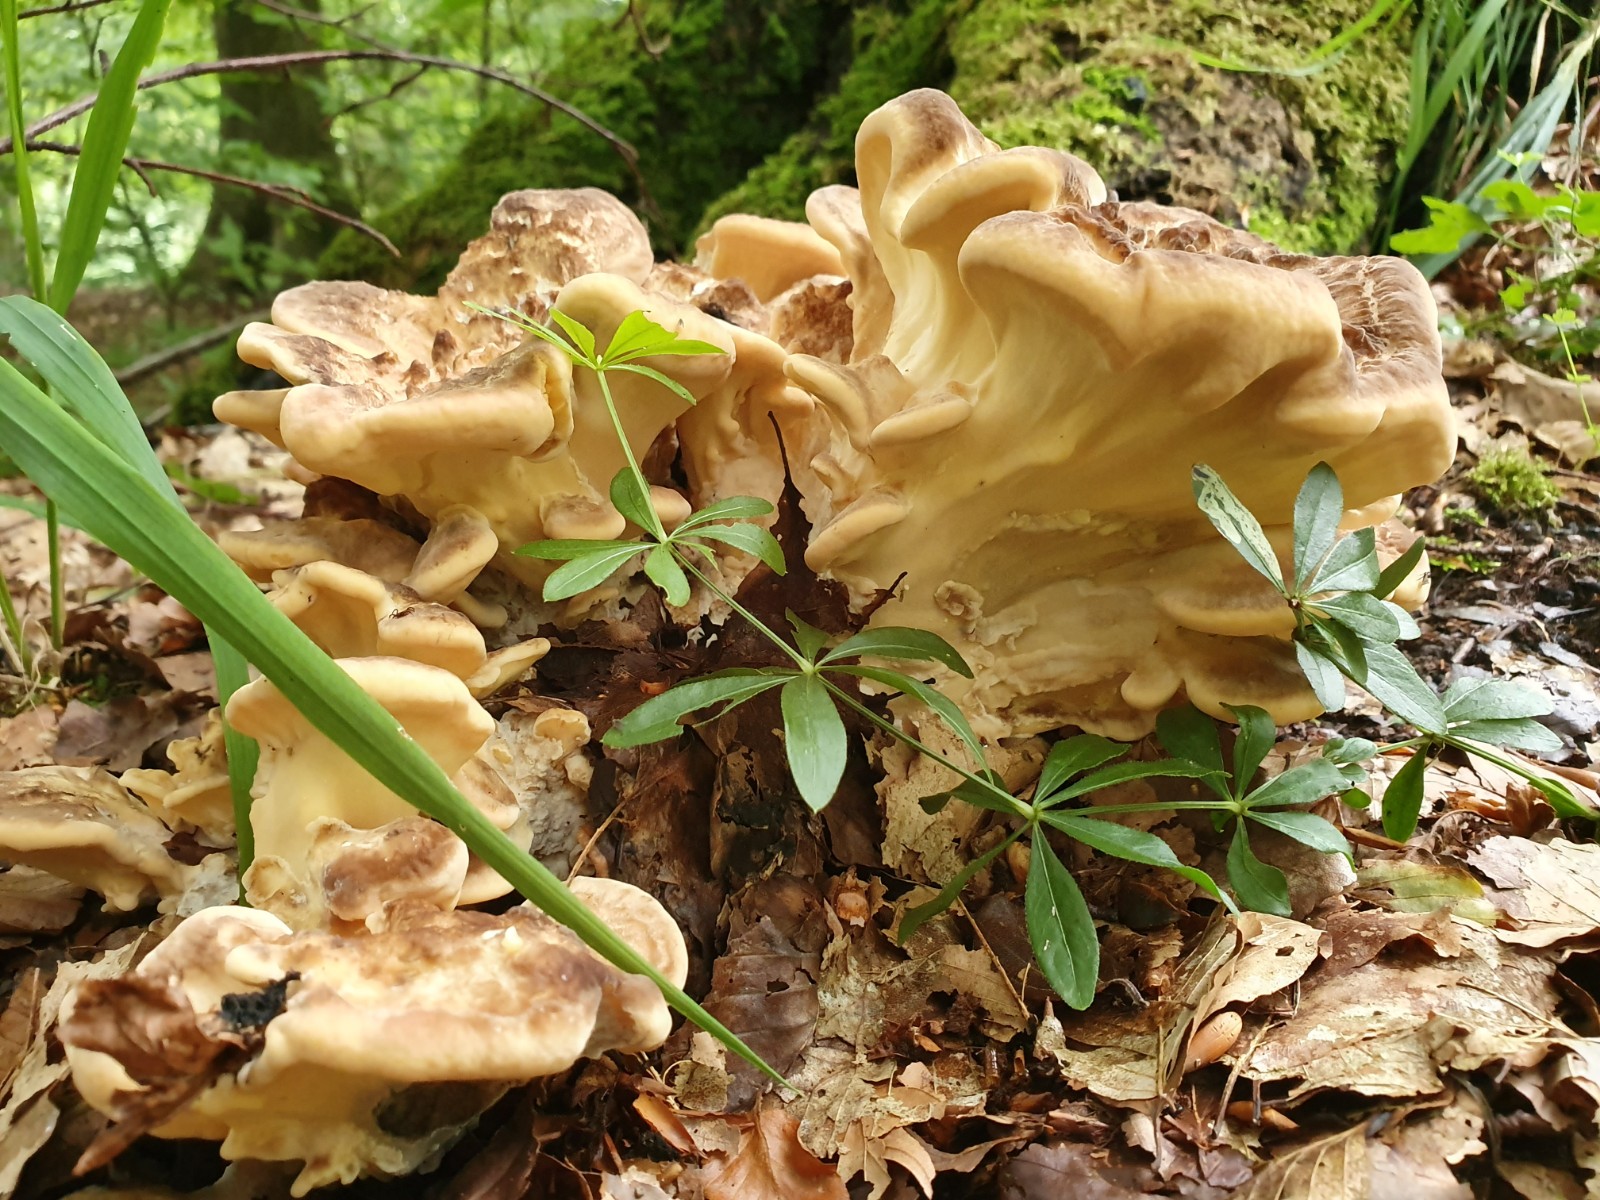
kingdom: Fungi
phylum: Basidiomycota
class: Agaricomycetes
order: Polyporales
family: Meripilaceae
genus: Meripilus
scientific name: Meripilus giganteus
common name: kæmpeporesvamp
